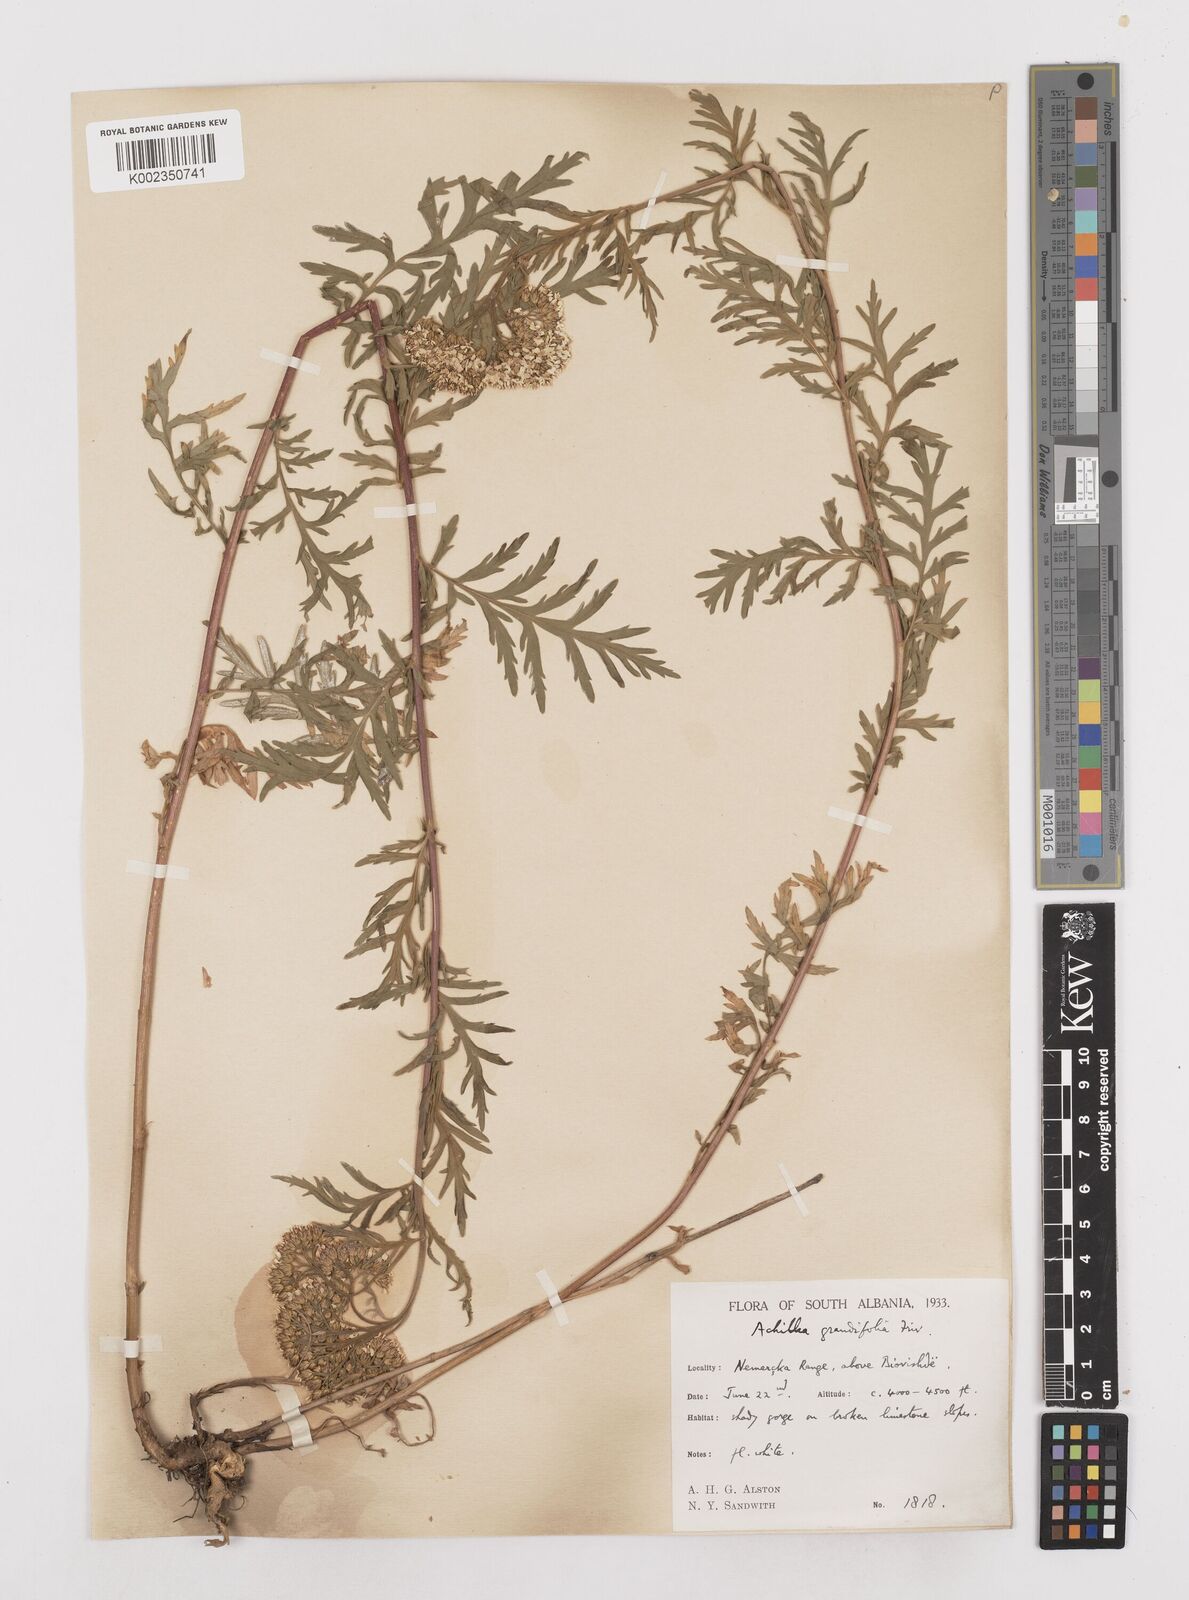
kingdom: Plantae
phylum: Tracheophyta
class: Magnoliopsida
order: Asterales
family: Asteraceae
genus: Achillea
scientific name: Achillea grandifolia
